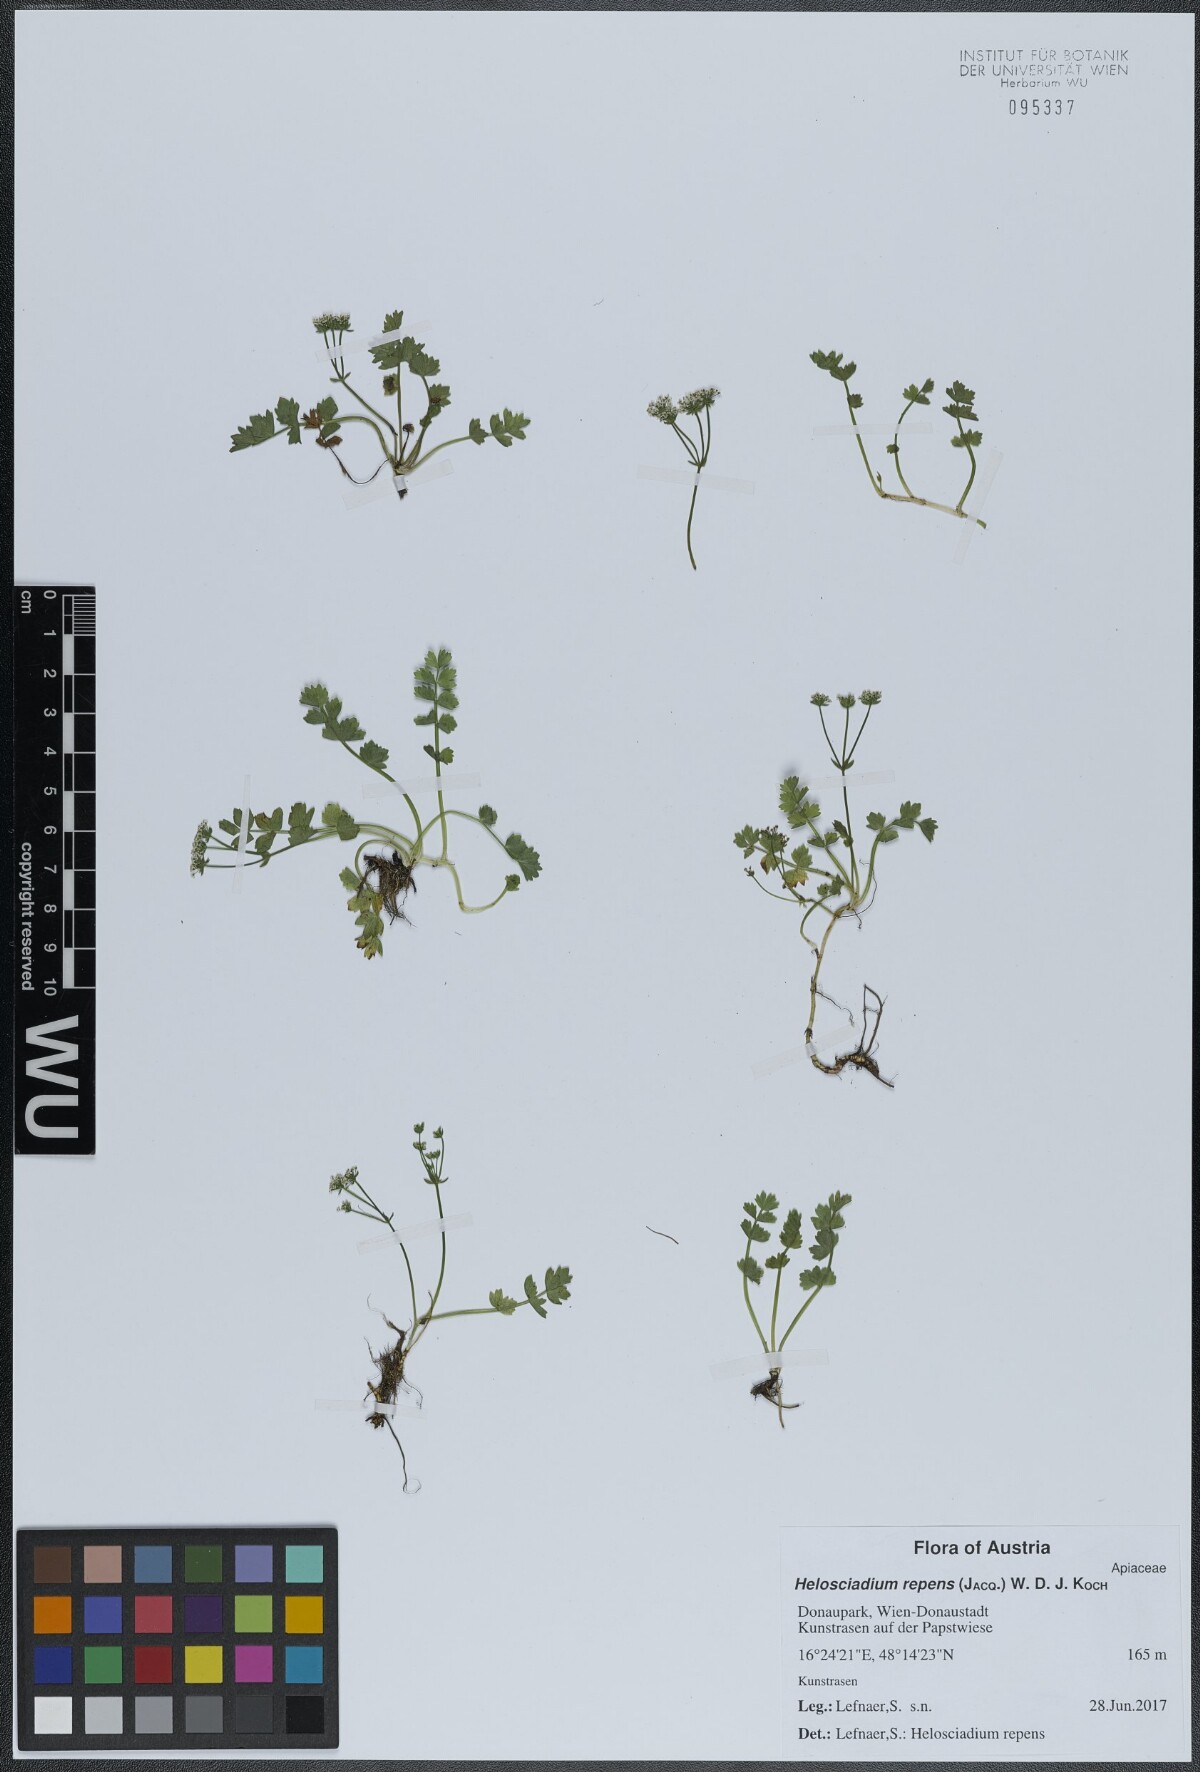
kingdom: Plantae
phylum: Tracheophyta
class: Magnoliopsida
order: Apiales
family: Apiaceae
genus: Helosciadium
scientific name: Helosciadium repens
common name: Creeping marshwort
